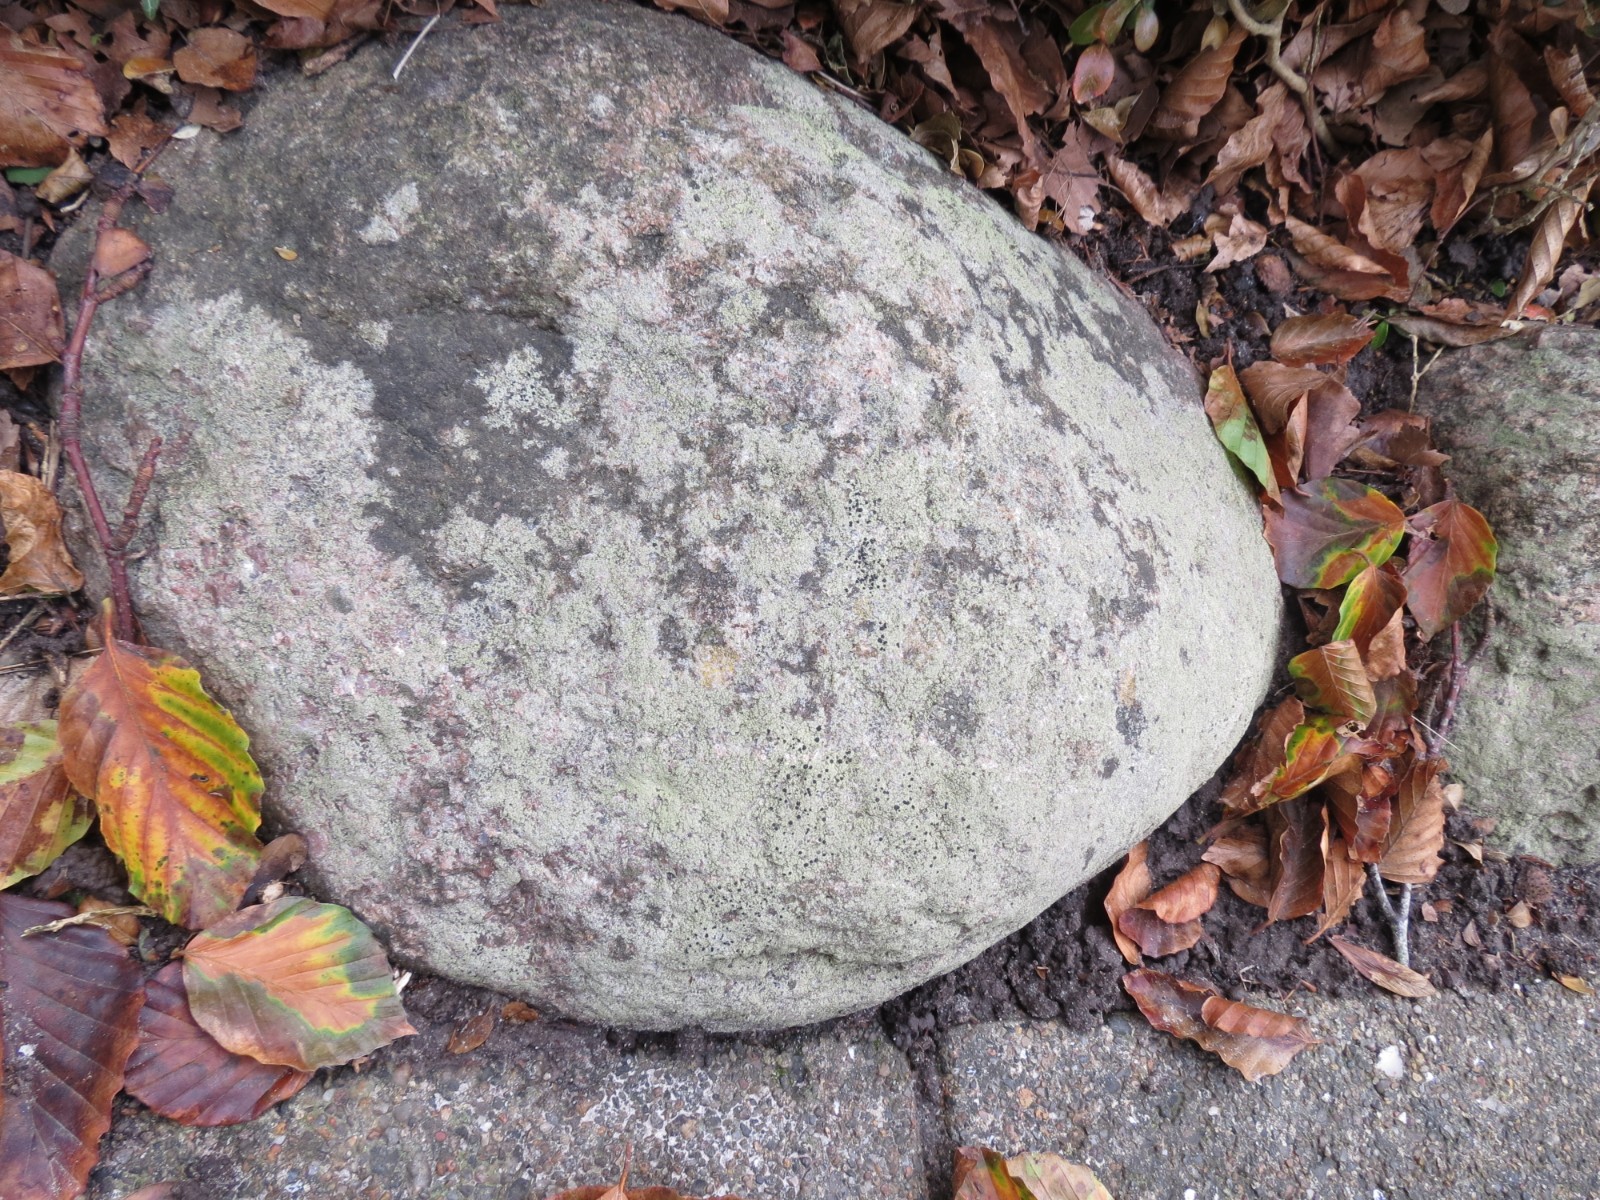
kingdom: Fungi
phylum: Ascomycota
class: Lecanoromycetes
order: Lecanorales
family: Lecanoraceae
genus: Lecidella
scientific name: Lecidella scabra
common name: skurvet skivelav
